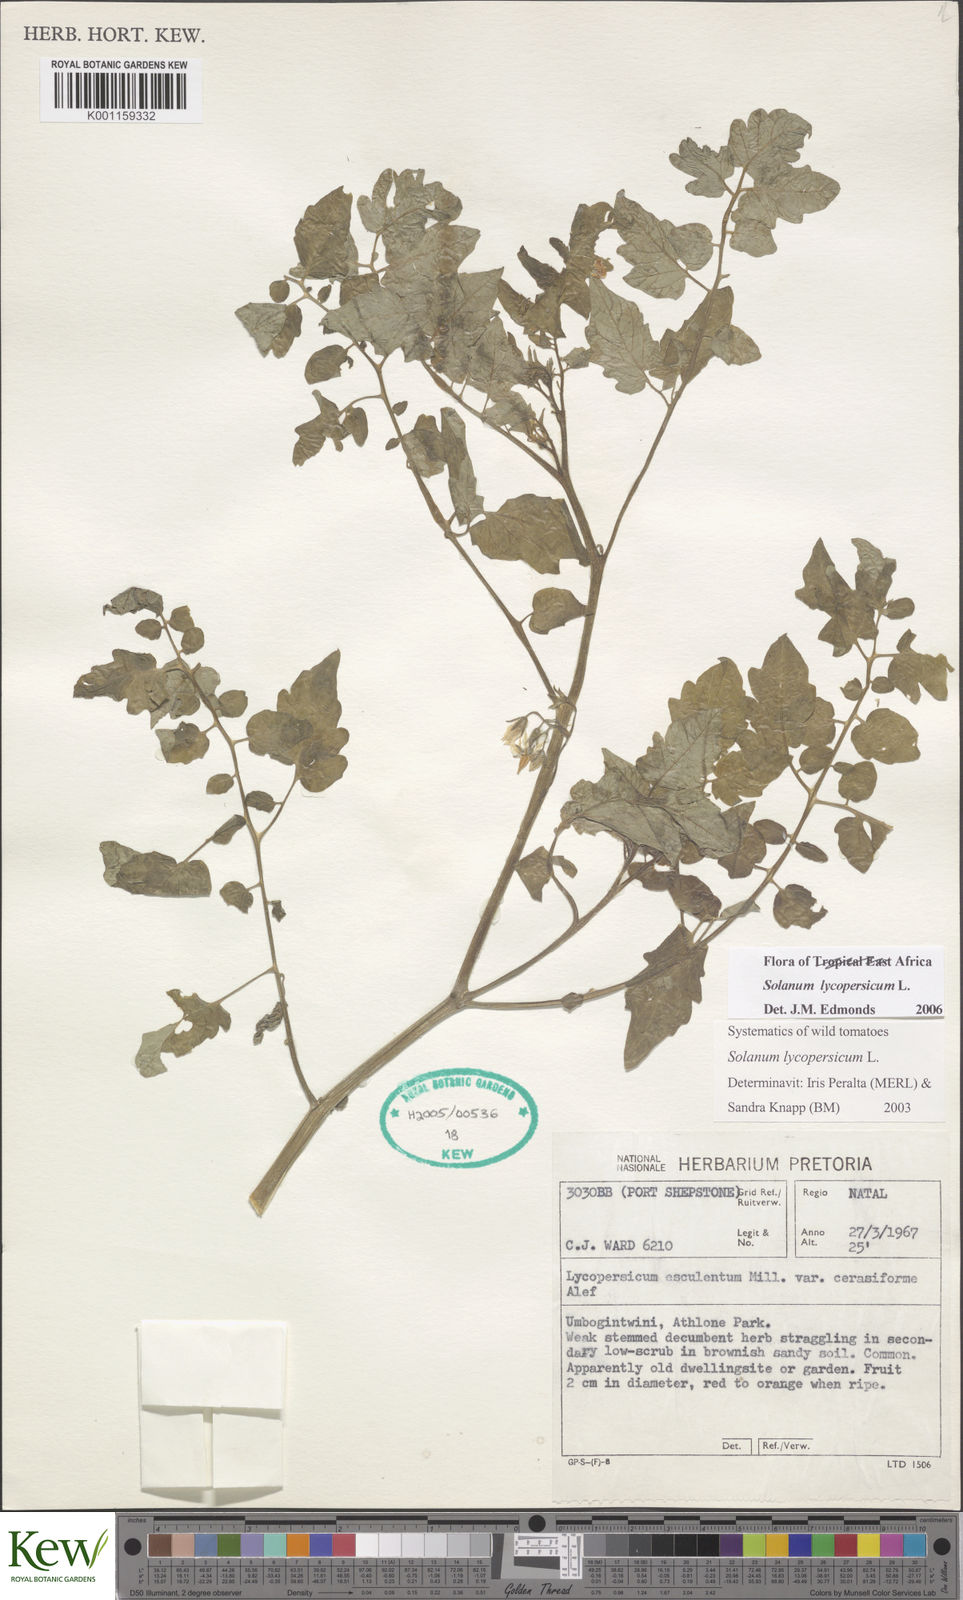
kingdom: Plantae
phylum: Tracheophyta
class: Magnoliopsida
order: Solanales
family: Solanaceae
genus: Solanum
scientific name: Solanum lycopersicum
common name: Garden tomato
